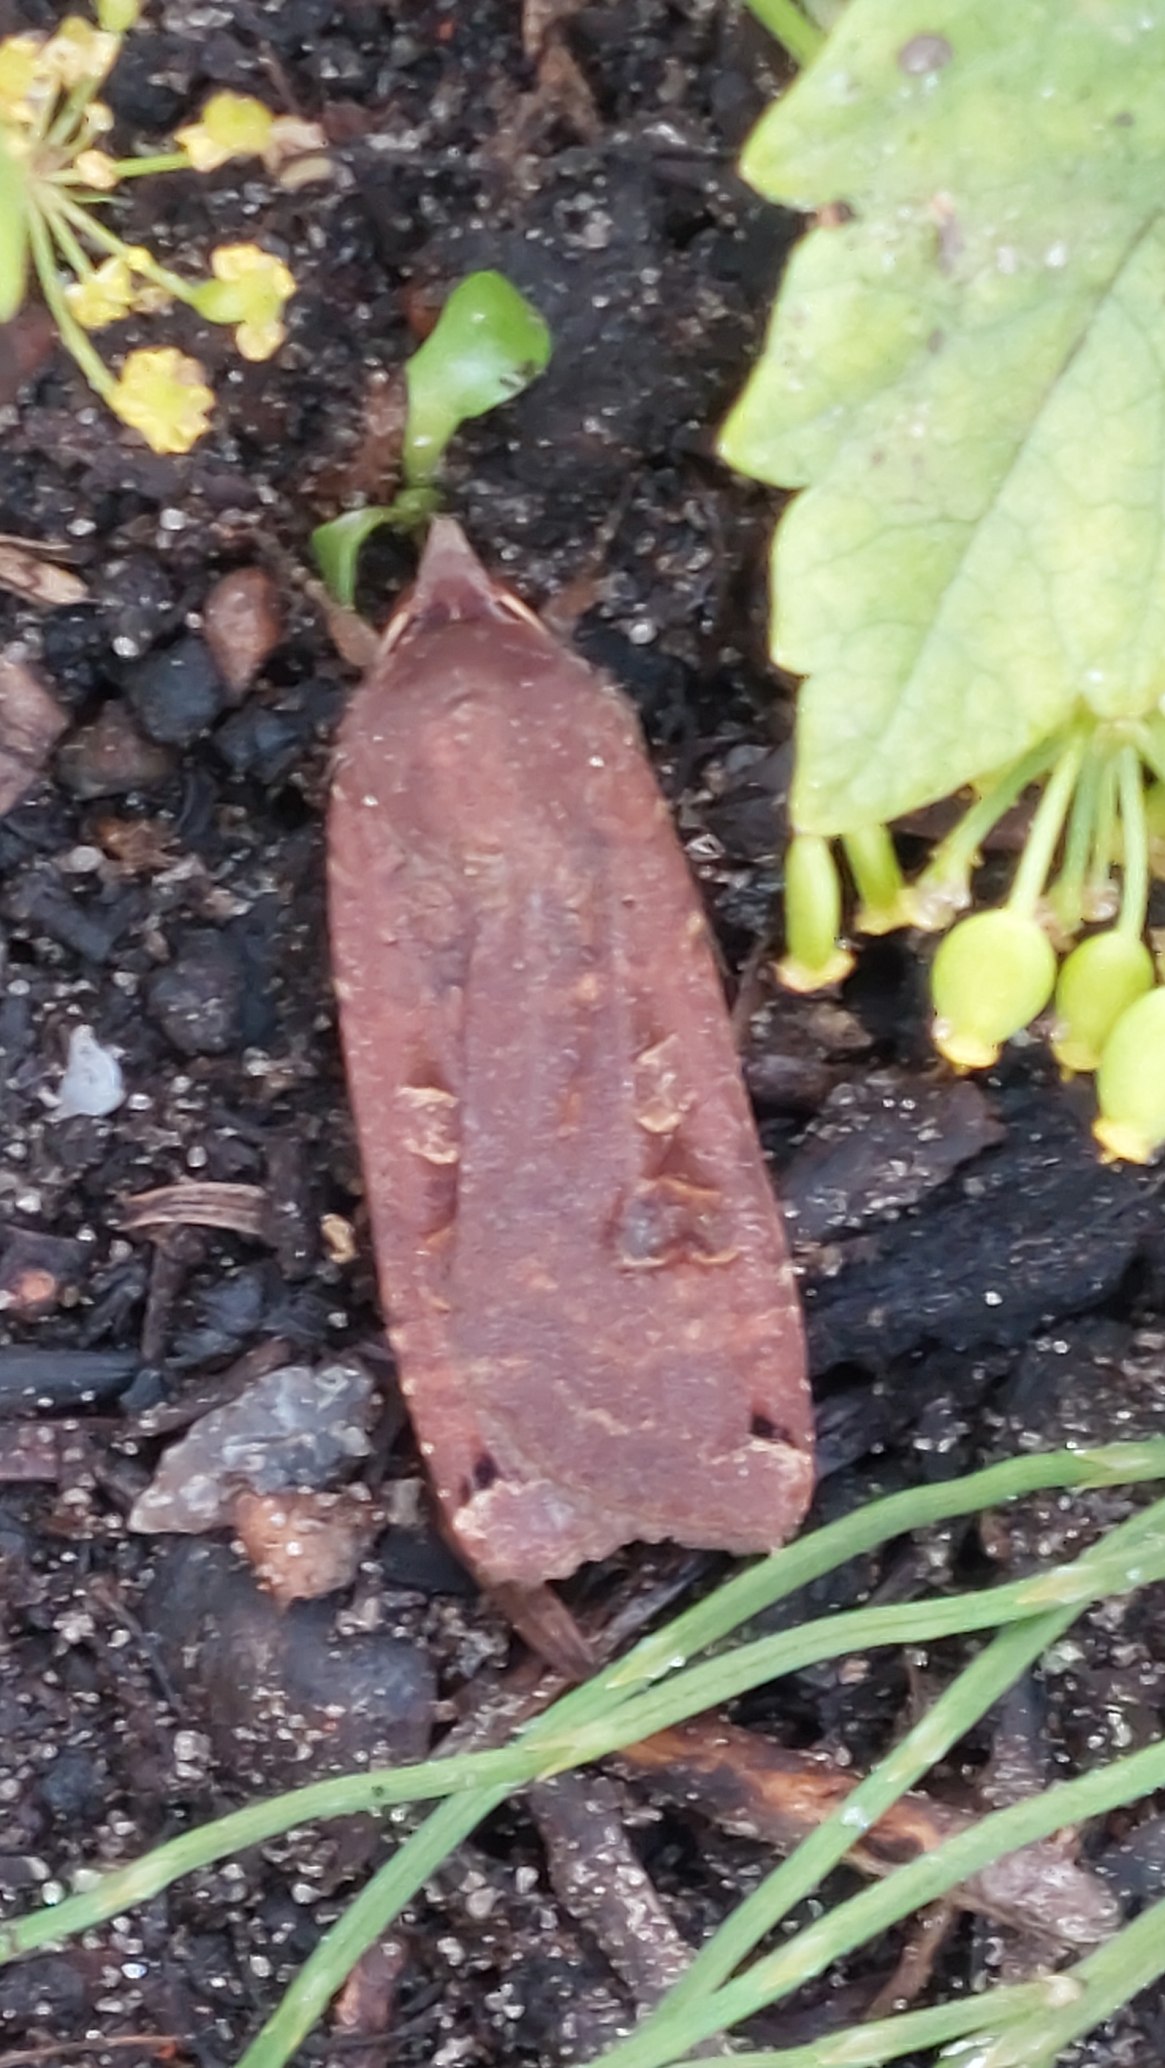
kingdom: Animalia
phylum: Arthropoda
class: Insecta
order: Lepidoptera
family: Noctuidae
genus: Noctua
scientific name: Noctua pronuba
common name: Stor smutugle
